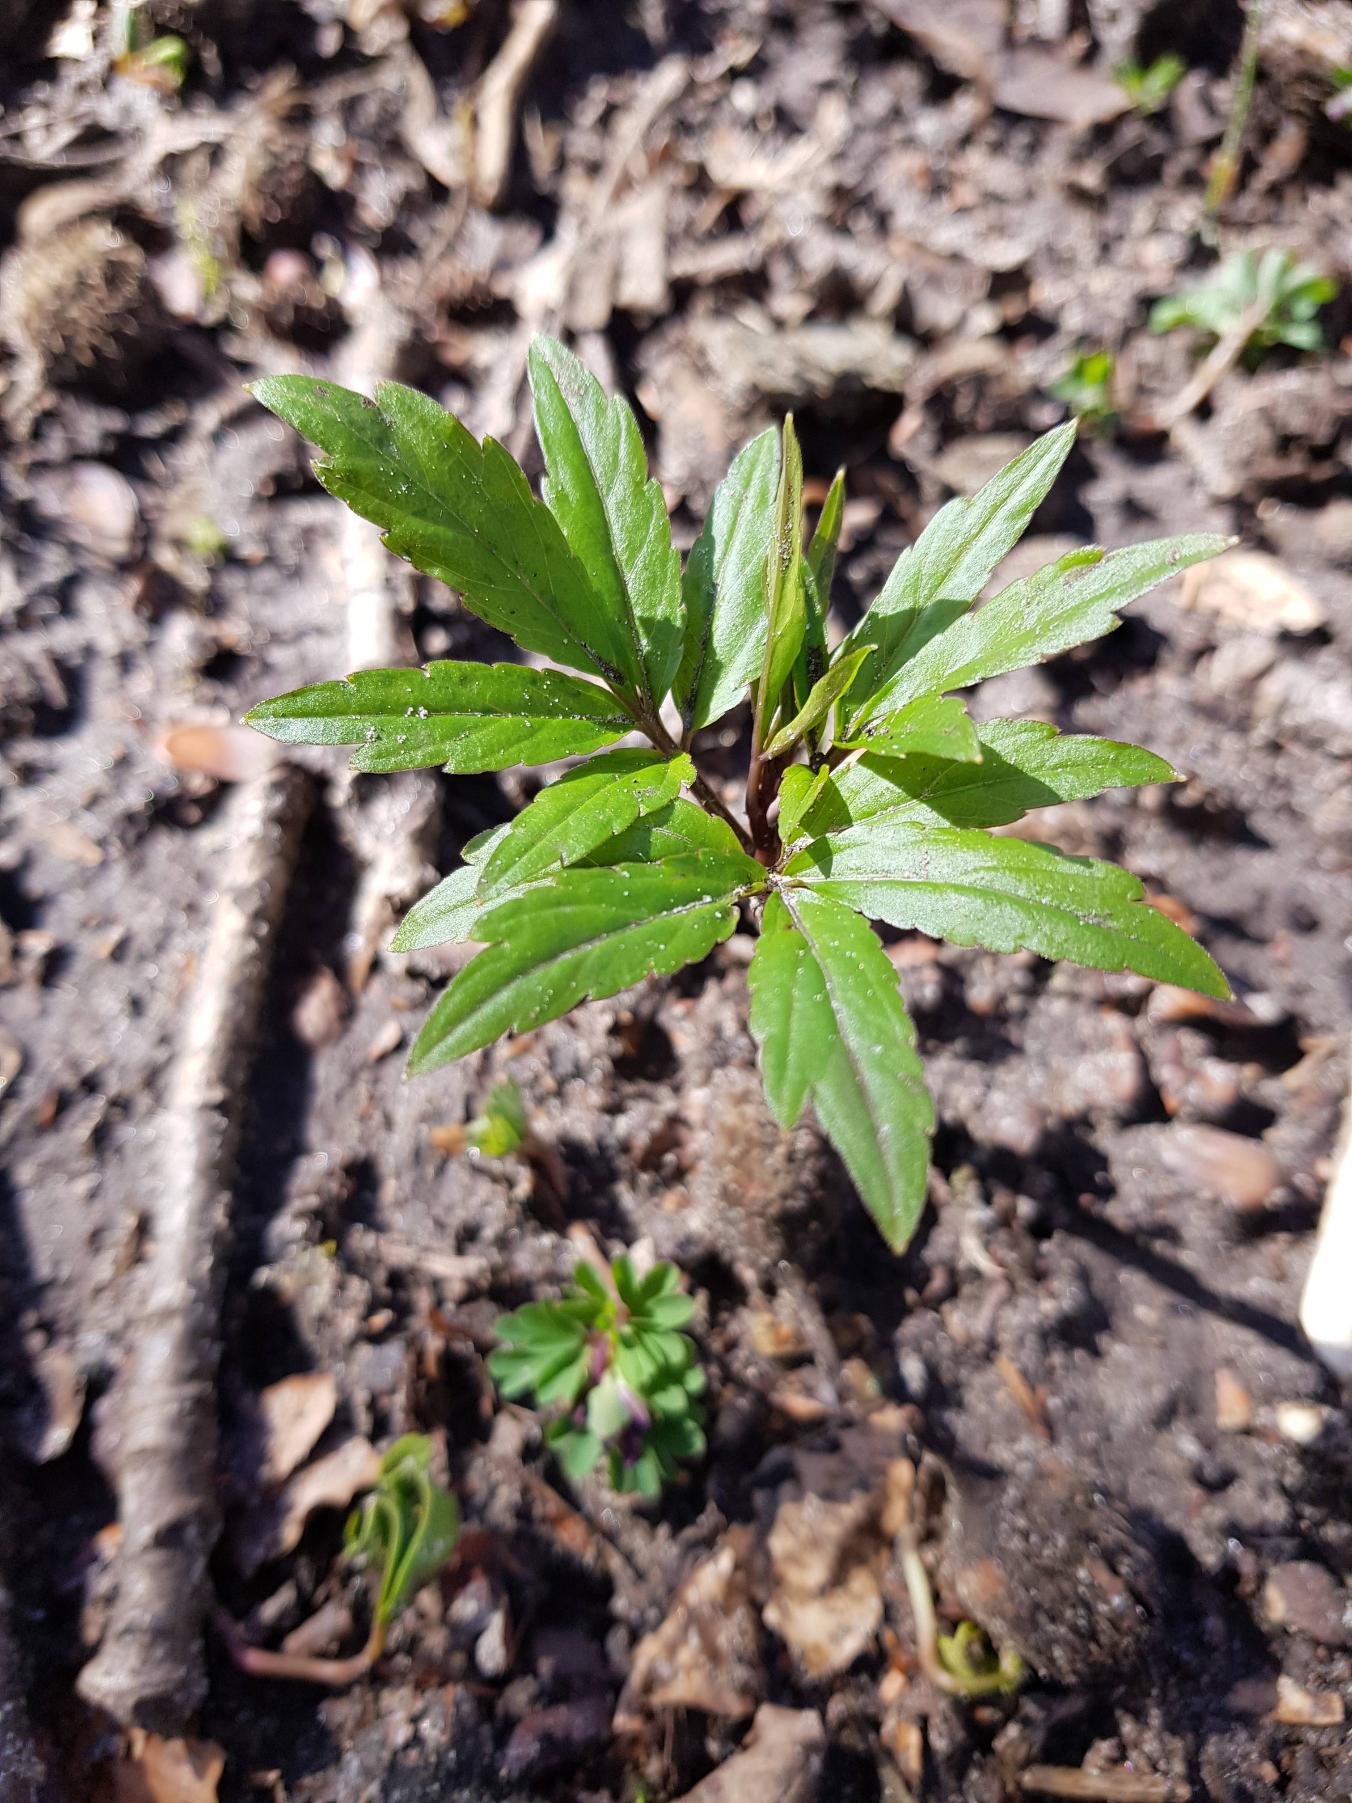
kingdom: Plantae
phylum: Tracheophyta
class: Magnoliopsida
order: Brassicales
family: Brassicaceae
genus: Cardamine
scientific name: Cardamine bulbifera
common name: Tandrod
